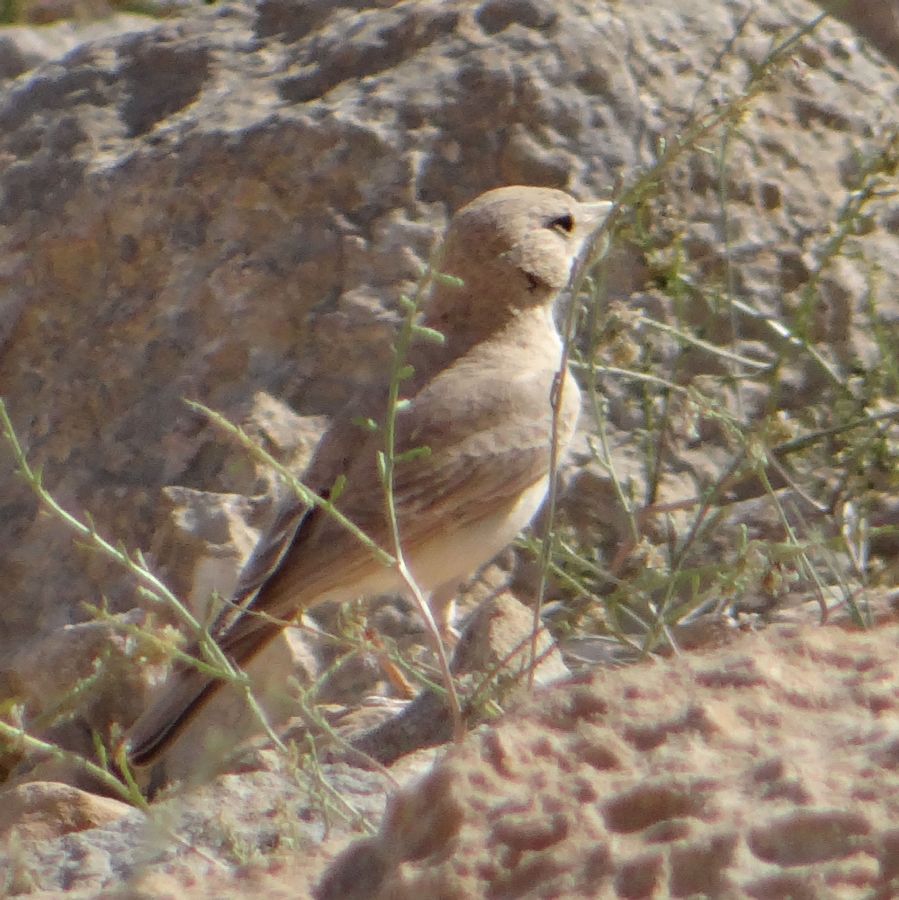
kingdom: Animalia
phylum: Chordata
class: Aves
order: Passeriformes
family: Alaudidae
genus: Ammomanes
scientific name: Ammomanes deserti
